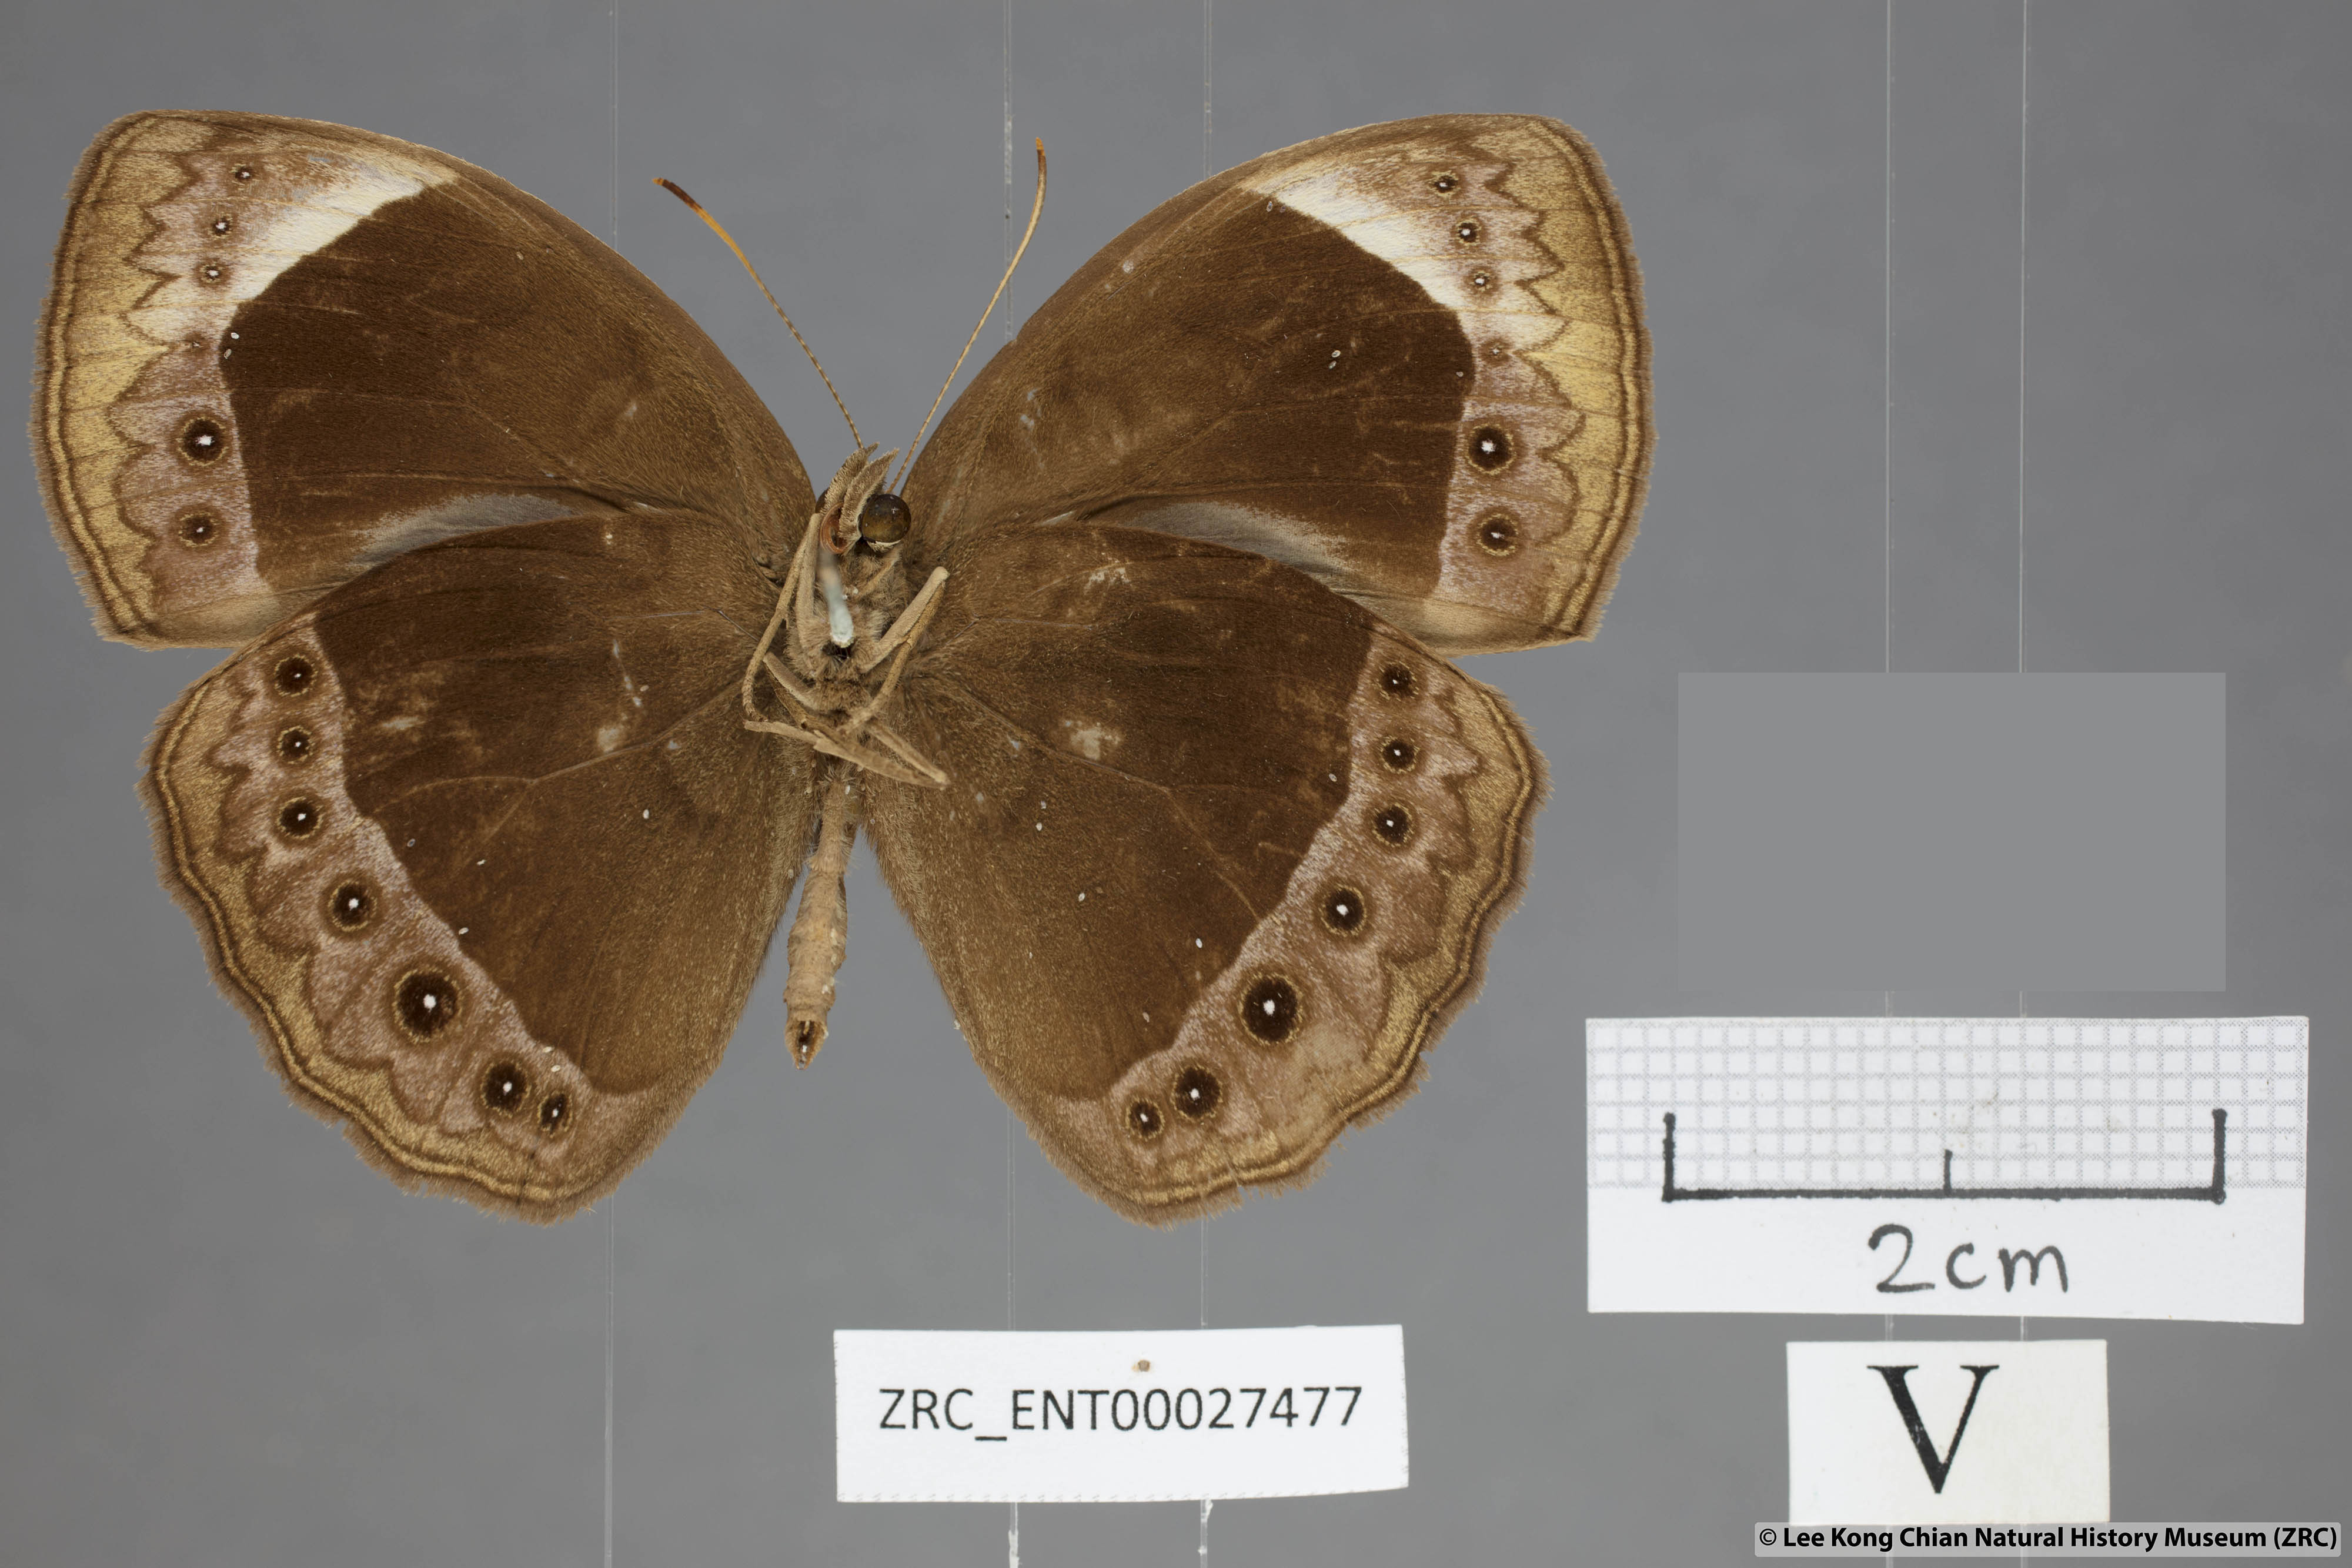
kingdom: Animalia
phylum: Arthropoda
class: Insecta
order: Lepidoptera
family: Nymphalidae
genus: Mycalesis
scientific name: Mycalesis anaxioides
